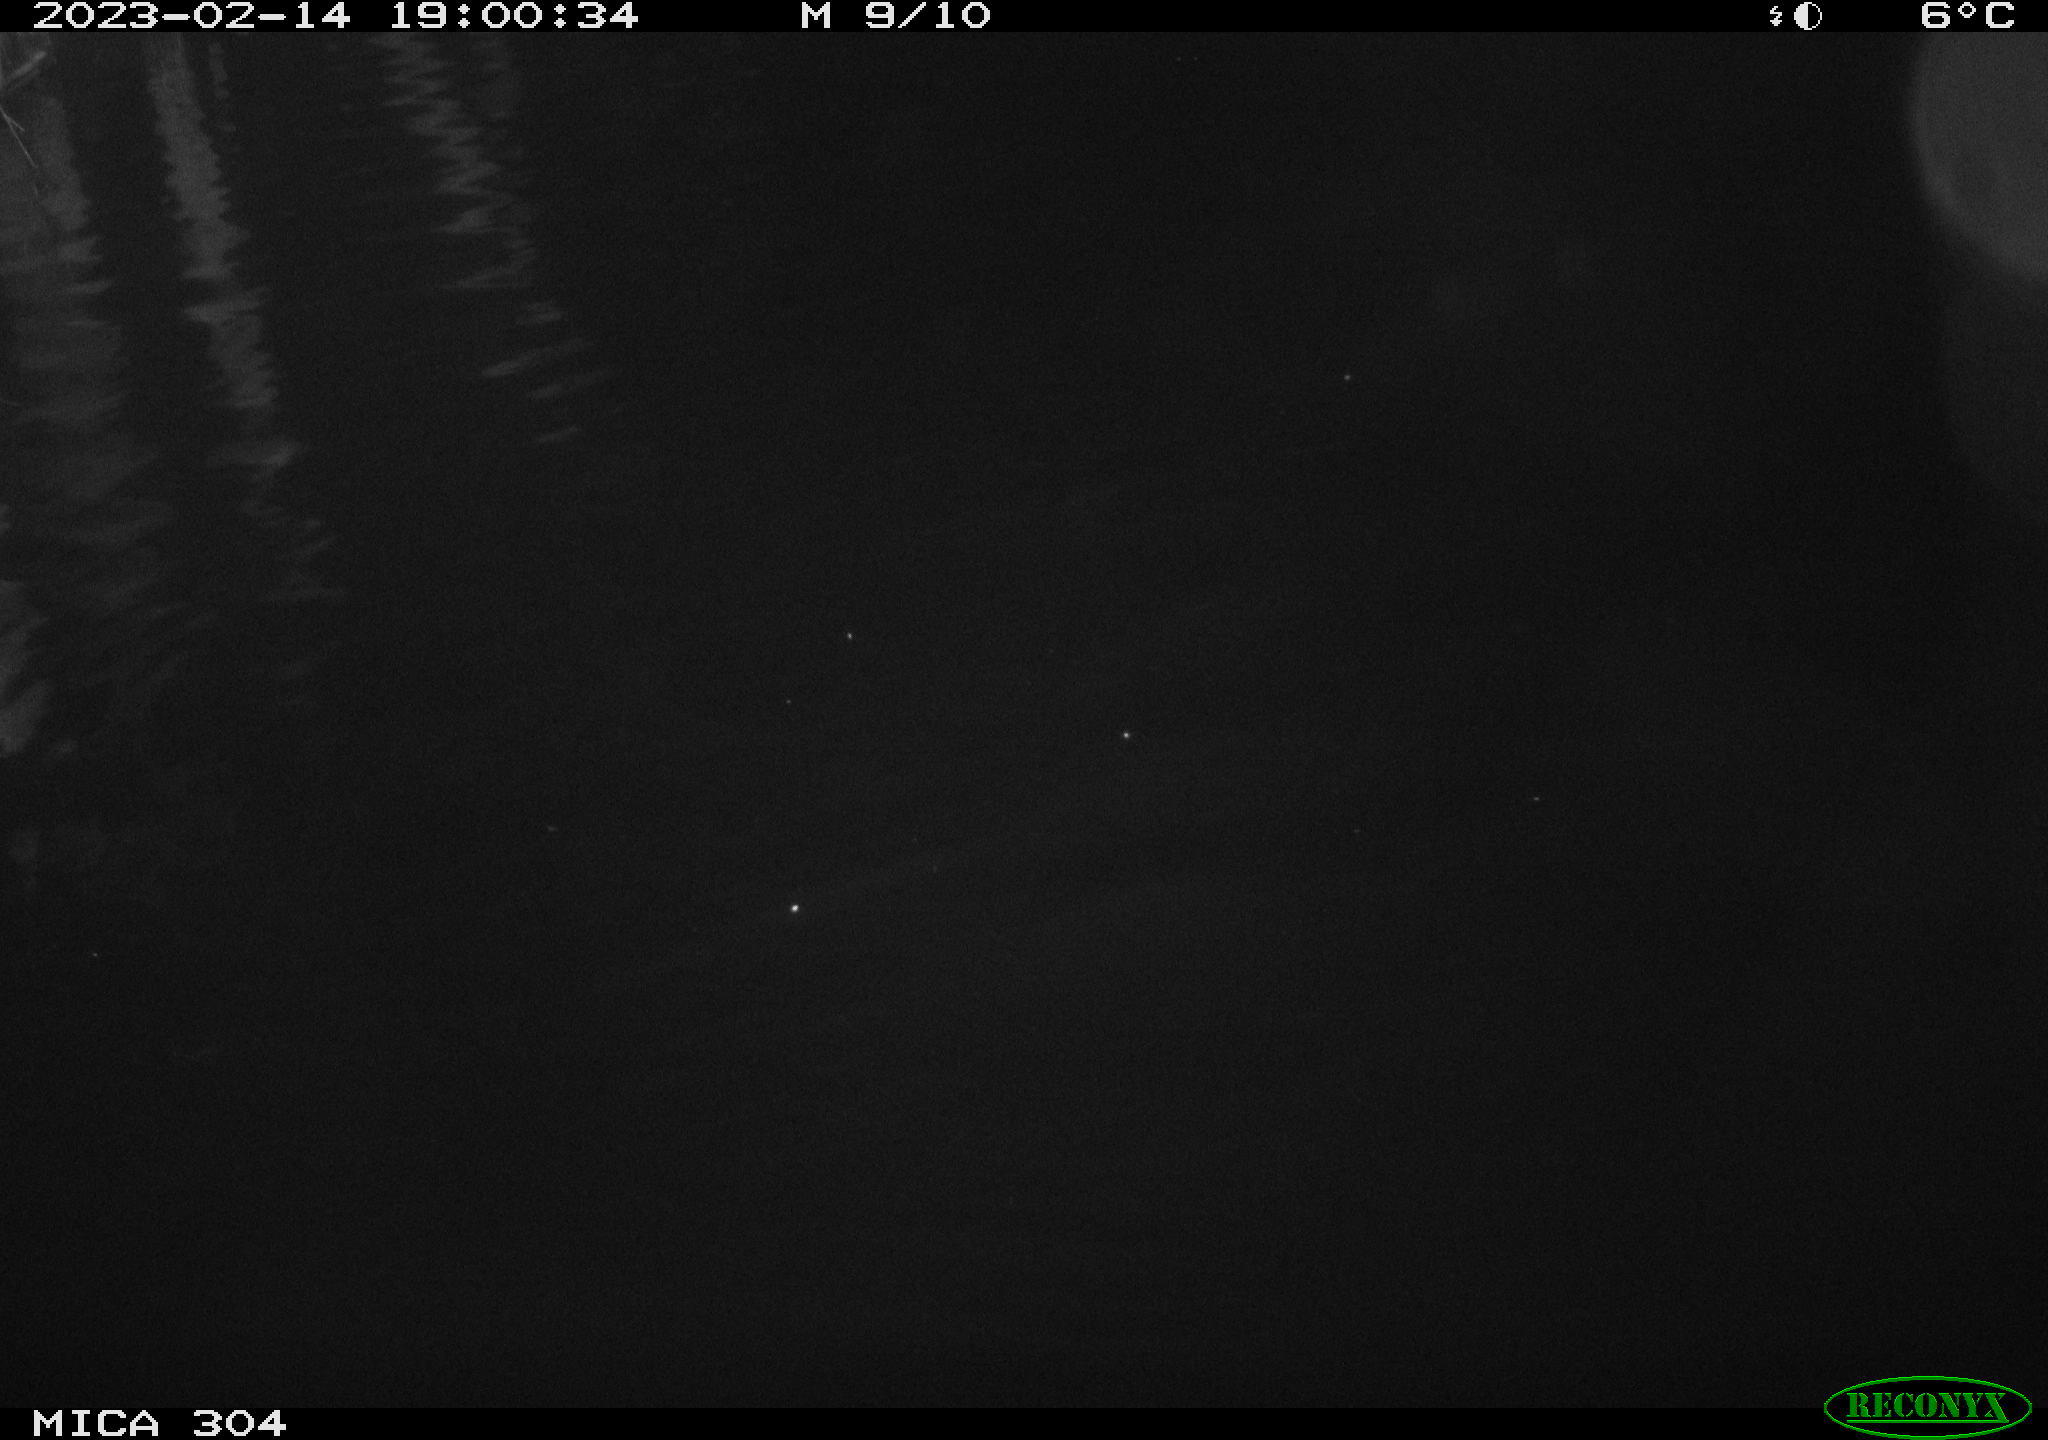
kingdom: Animalia
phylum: Chordata
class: Mammalia
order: Rodentia
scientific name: Rodentia
